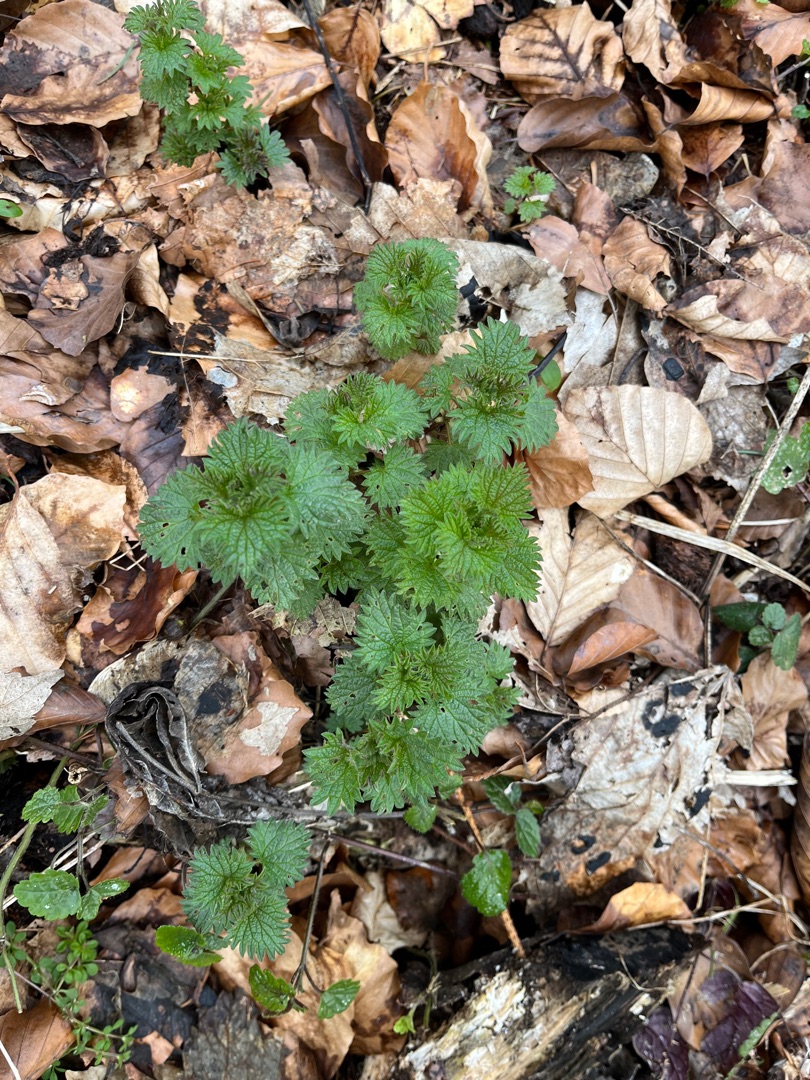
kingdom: Plantae
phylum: Tracheophyta
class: Magnoliopsida
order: Rosales
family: Urticaceae
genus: Urtica
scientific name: Urtica dioica
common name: Stor nælde
